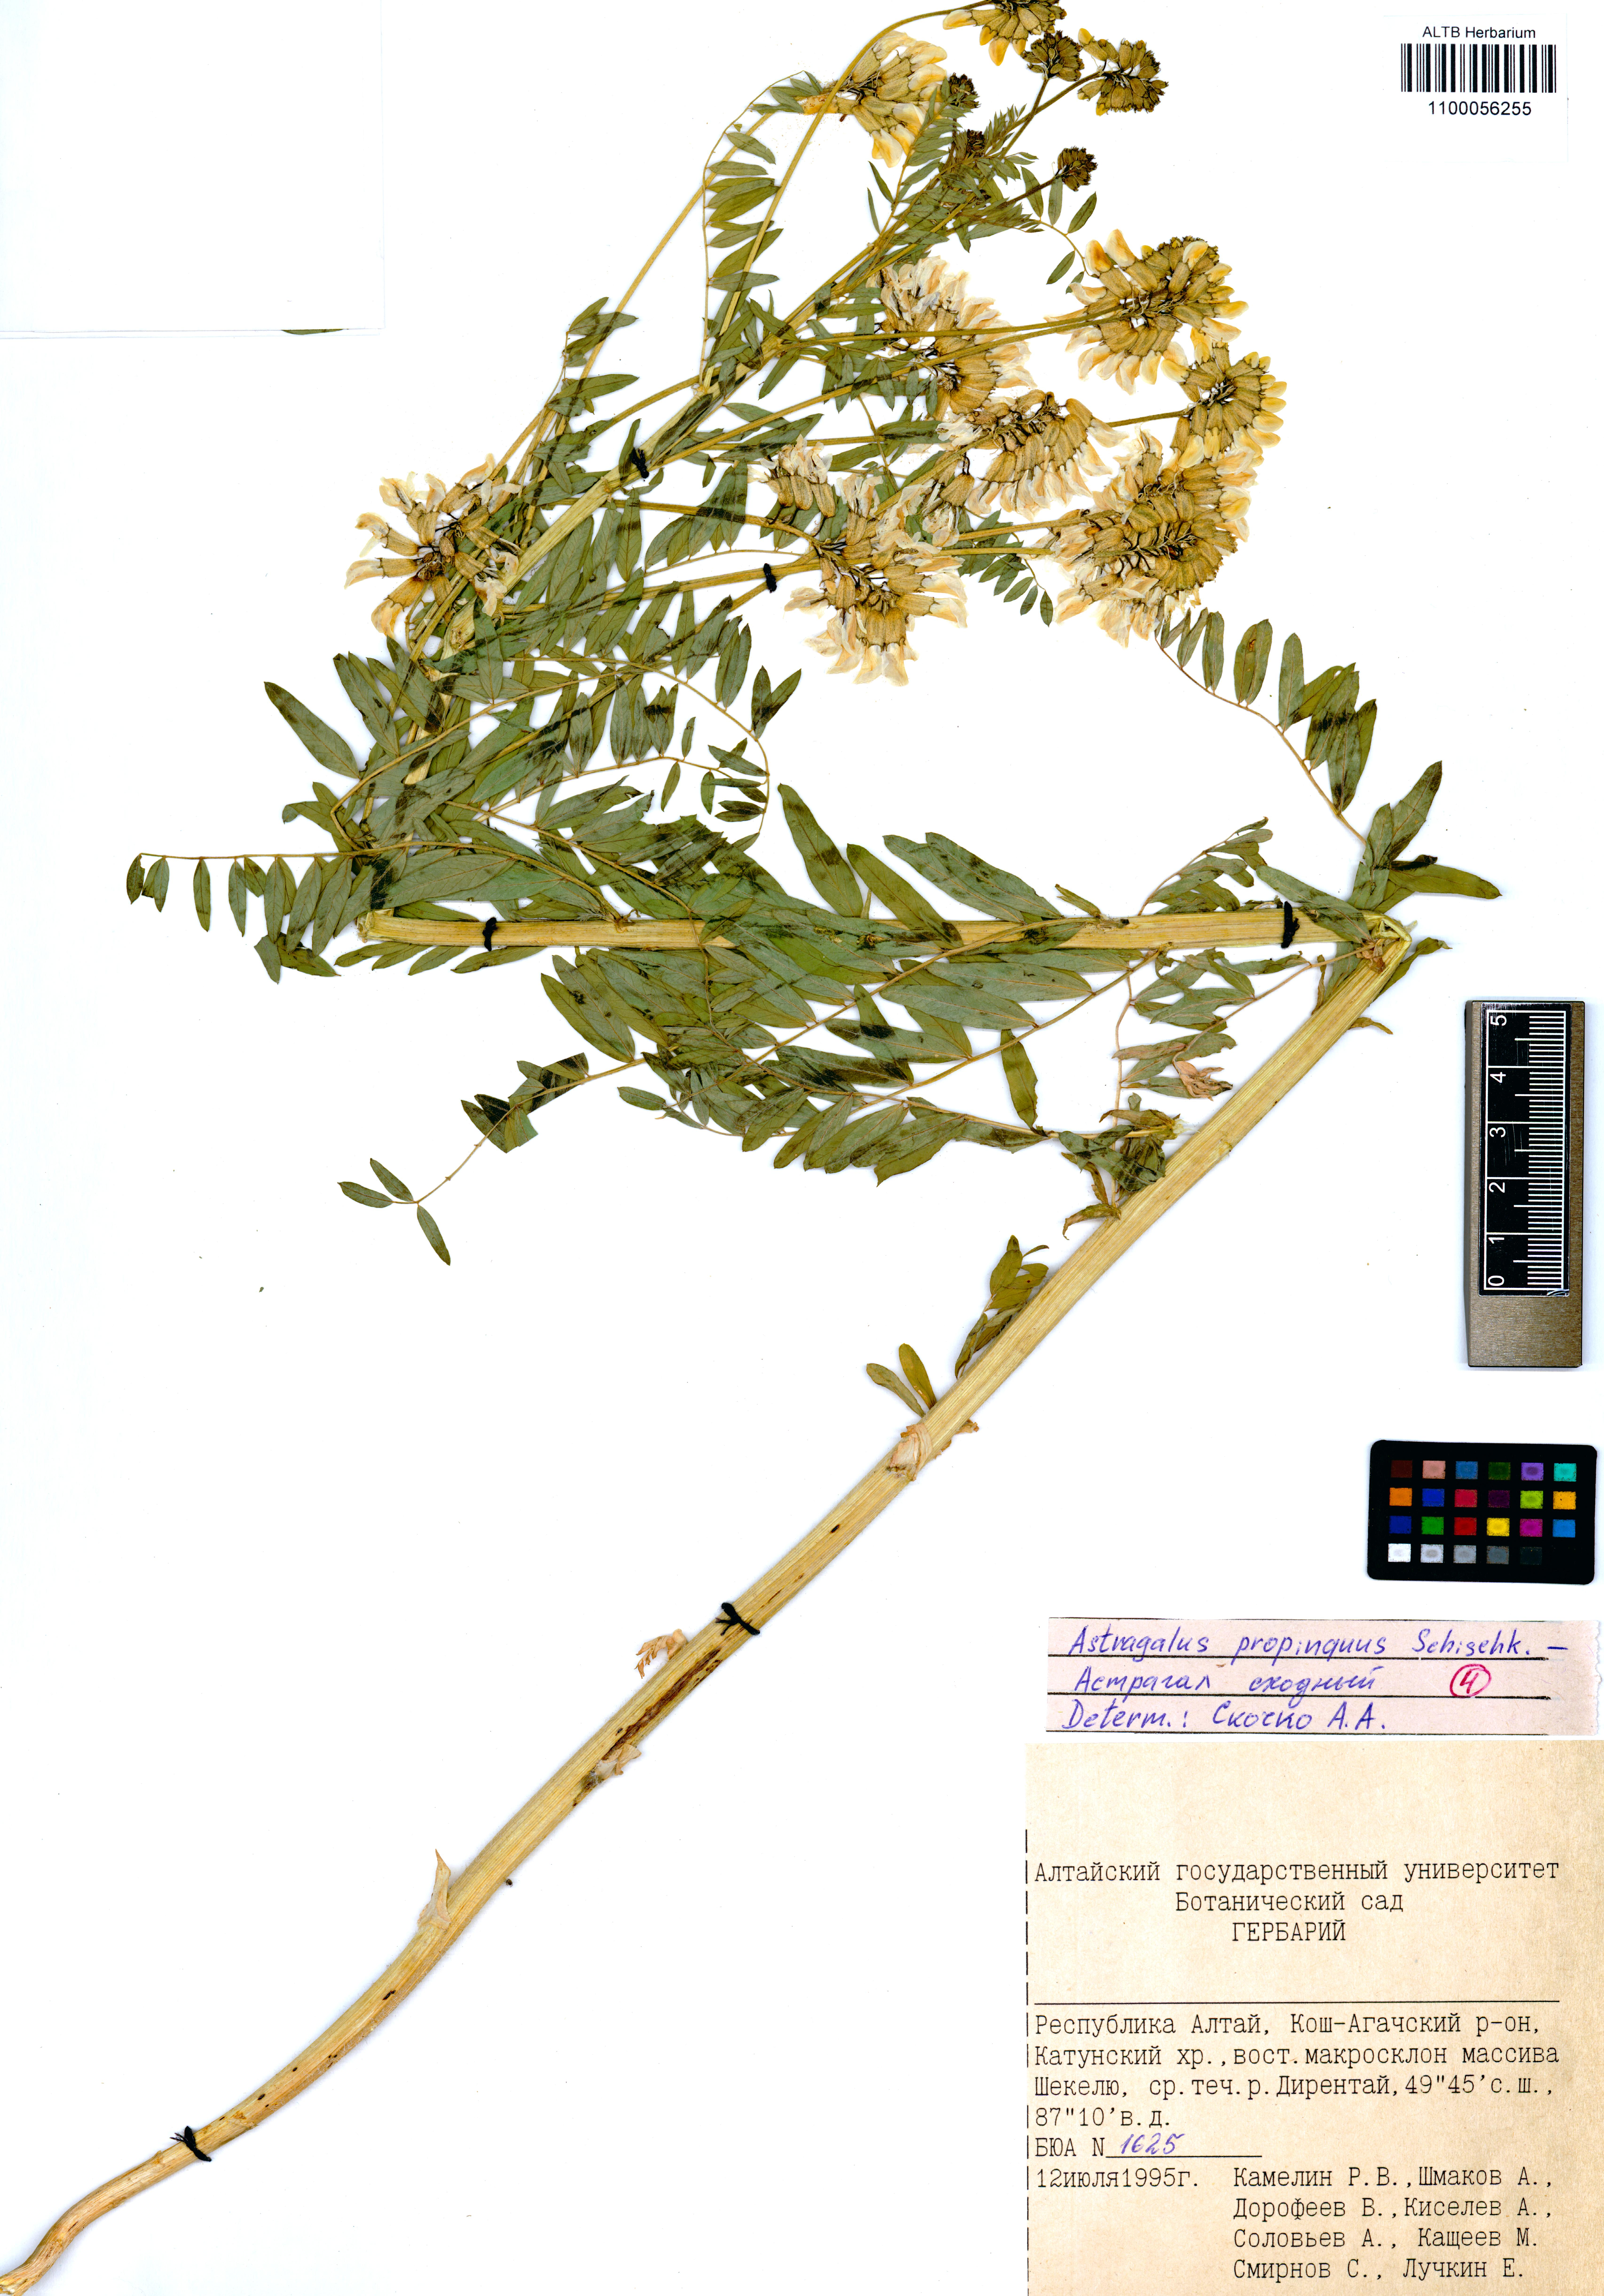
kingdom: Plantae
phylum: Tracheophyta
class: Magnoliopsida
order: Fabales
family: Fabaceae
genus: Astragalus
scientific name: Astragalus mongholicus
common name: Membranous milk-vetch
